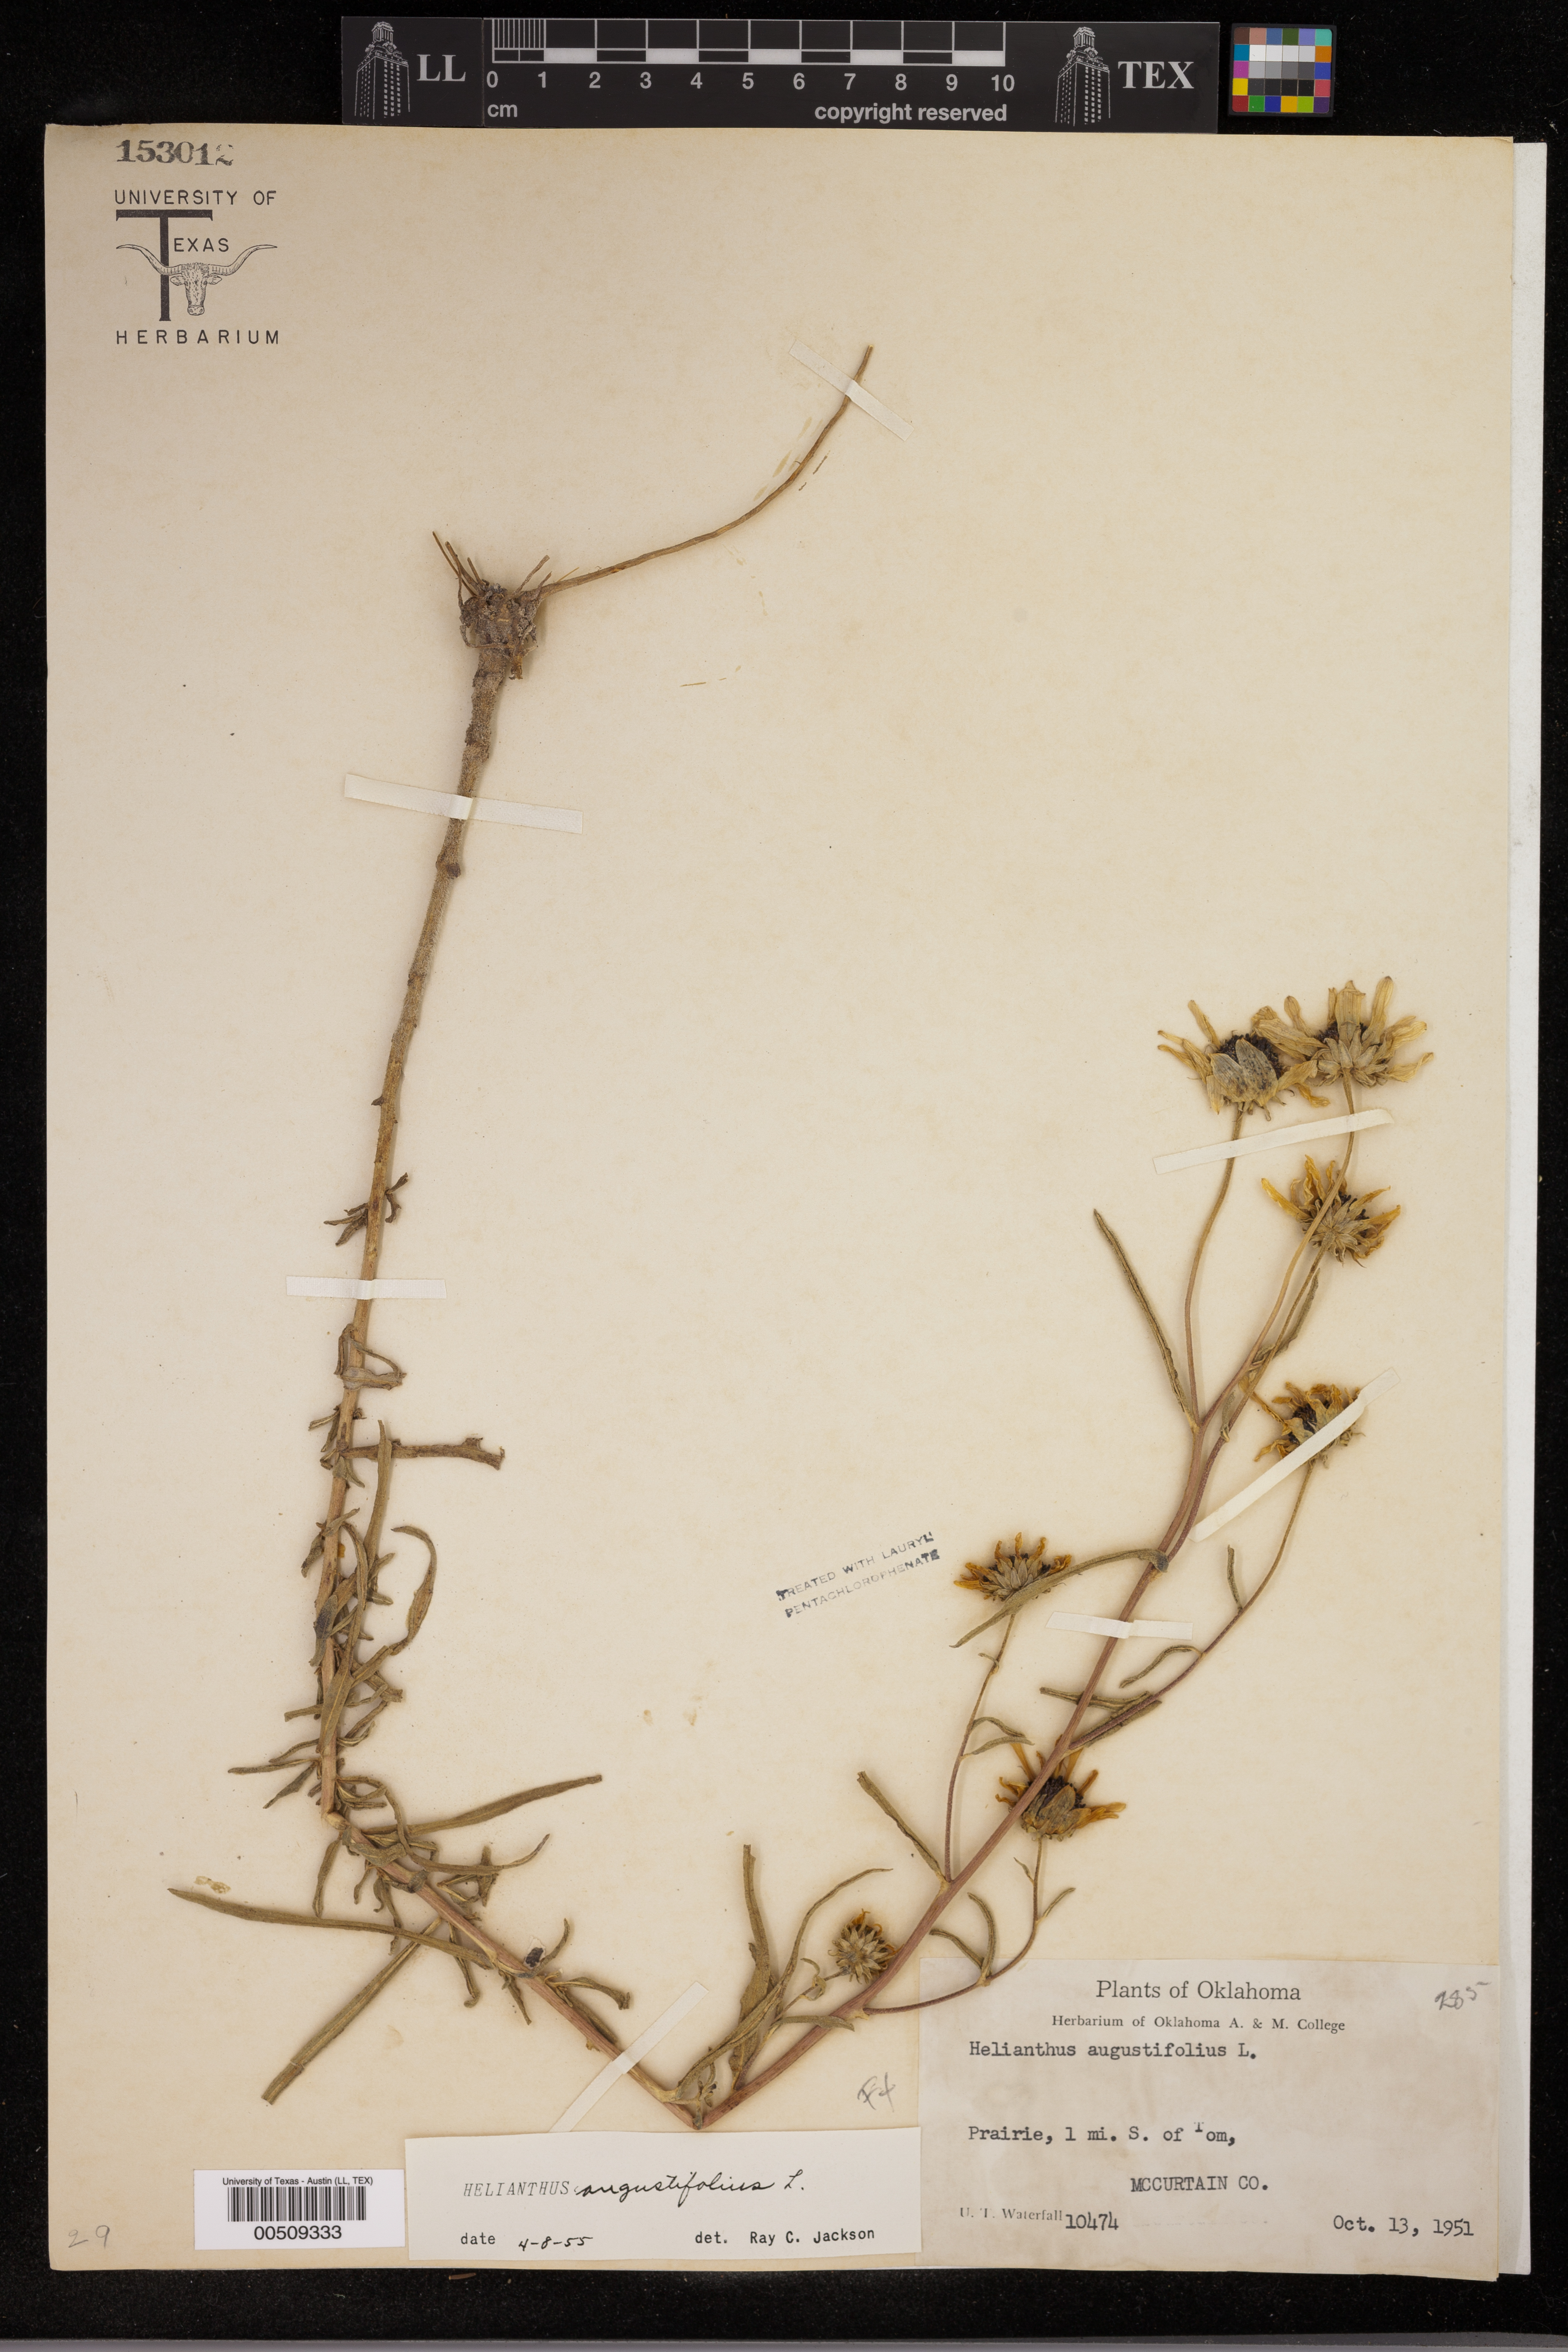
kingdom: Plantae
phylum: Tracheophyta
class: Magnoliopsida
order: Asterales
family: Asteraceae
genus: Helianthus
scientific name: Helianthus angustifolius
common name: Swamp sunflower
